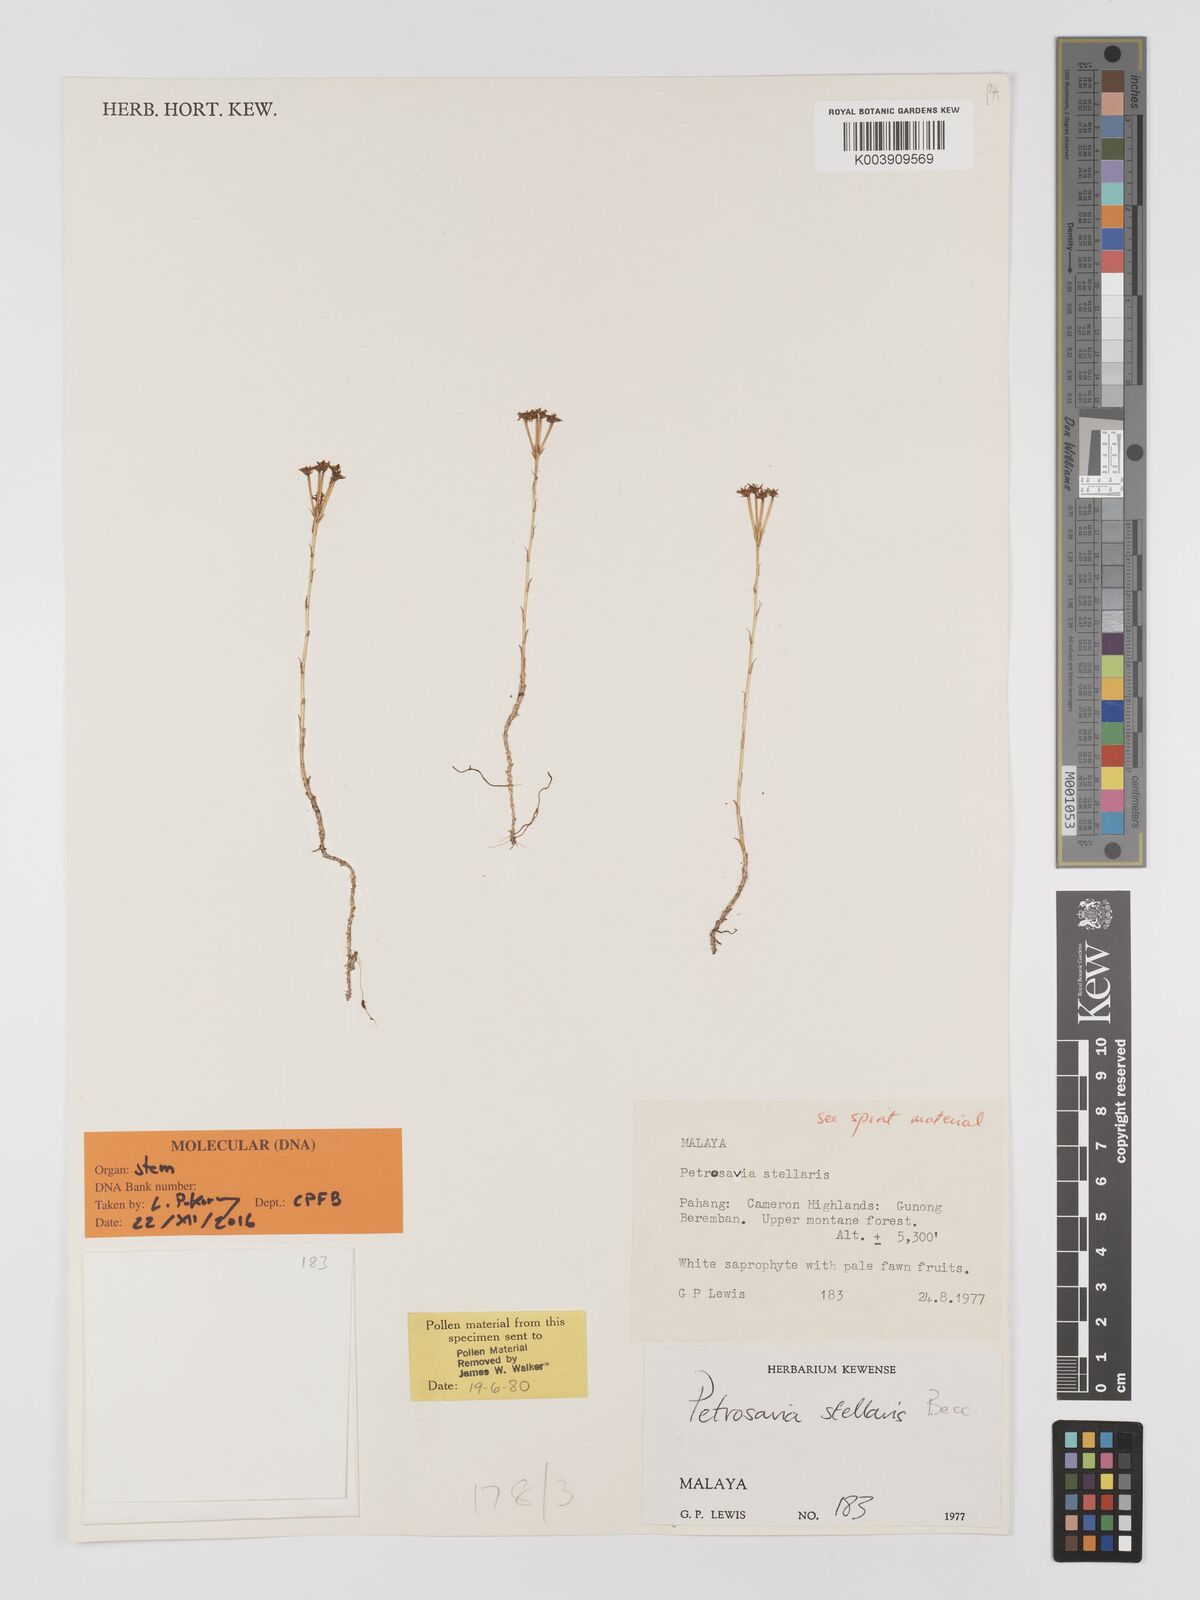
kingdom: Plantae
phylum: Tracheophyta
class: Liliopsida
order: Petrosaviales
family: Petrosaviaceae
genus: Petrosavia
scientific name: Petrosavia stellaris
